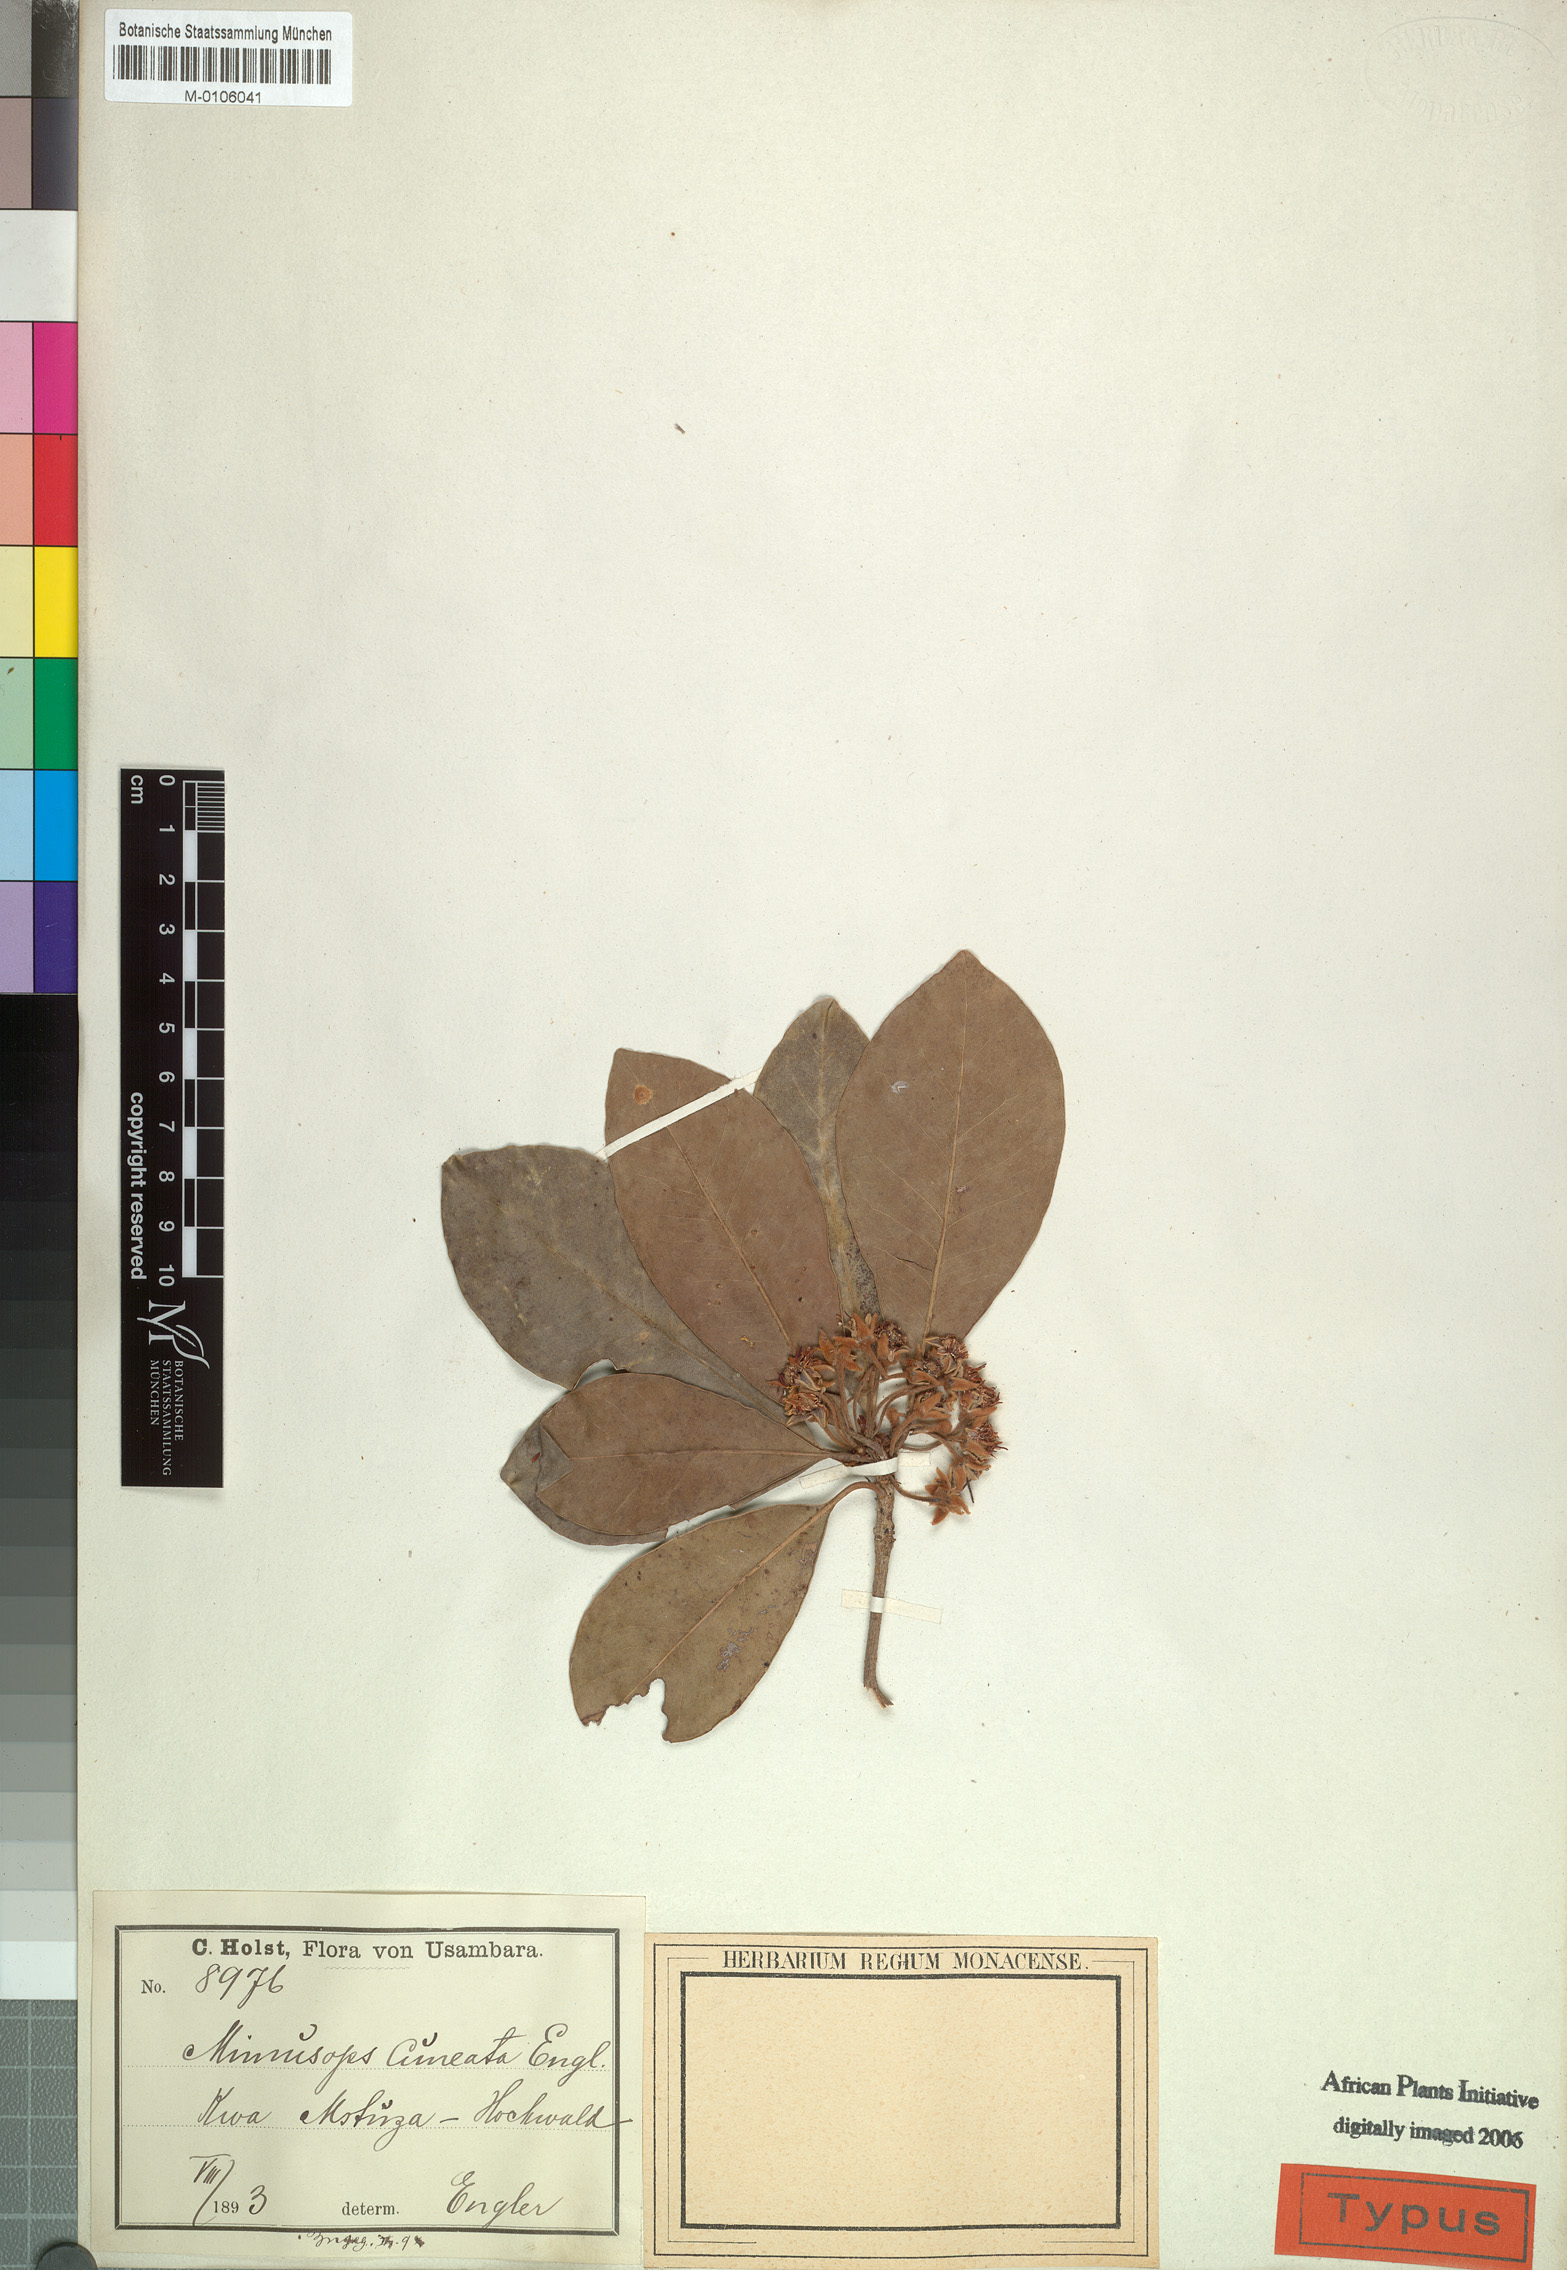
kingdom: Plantae
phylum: Tracheophyta
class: Magnoliopsida
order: Ericales
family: Sapotaceae
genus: Vitellariopsis
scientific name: Vitellariopsis cuneata
